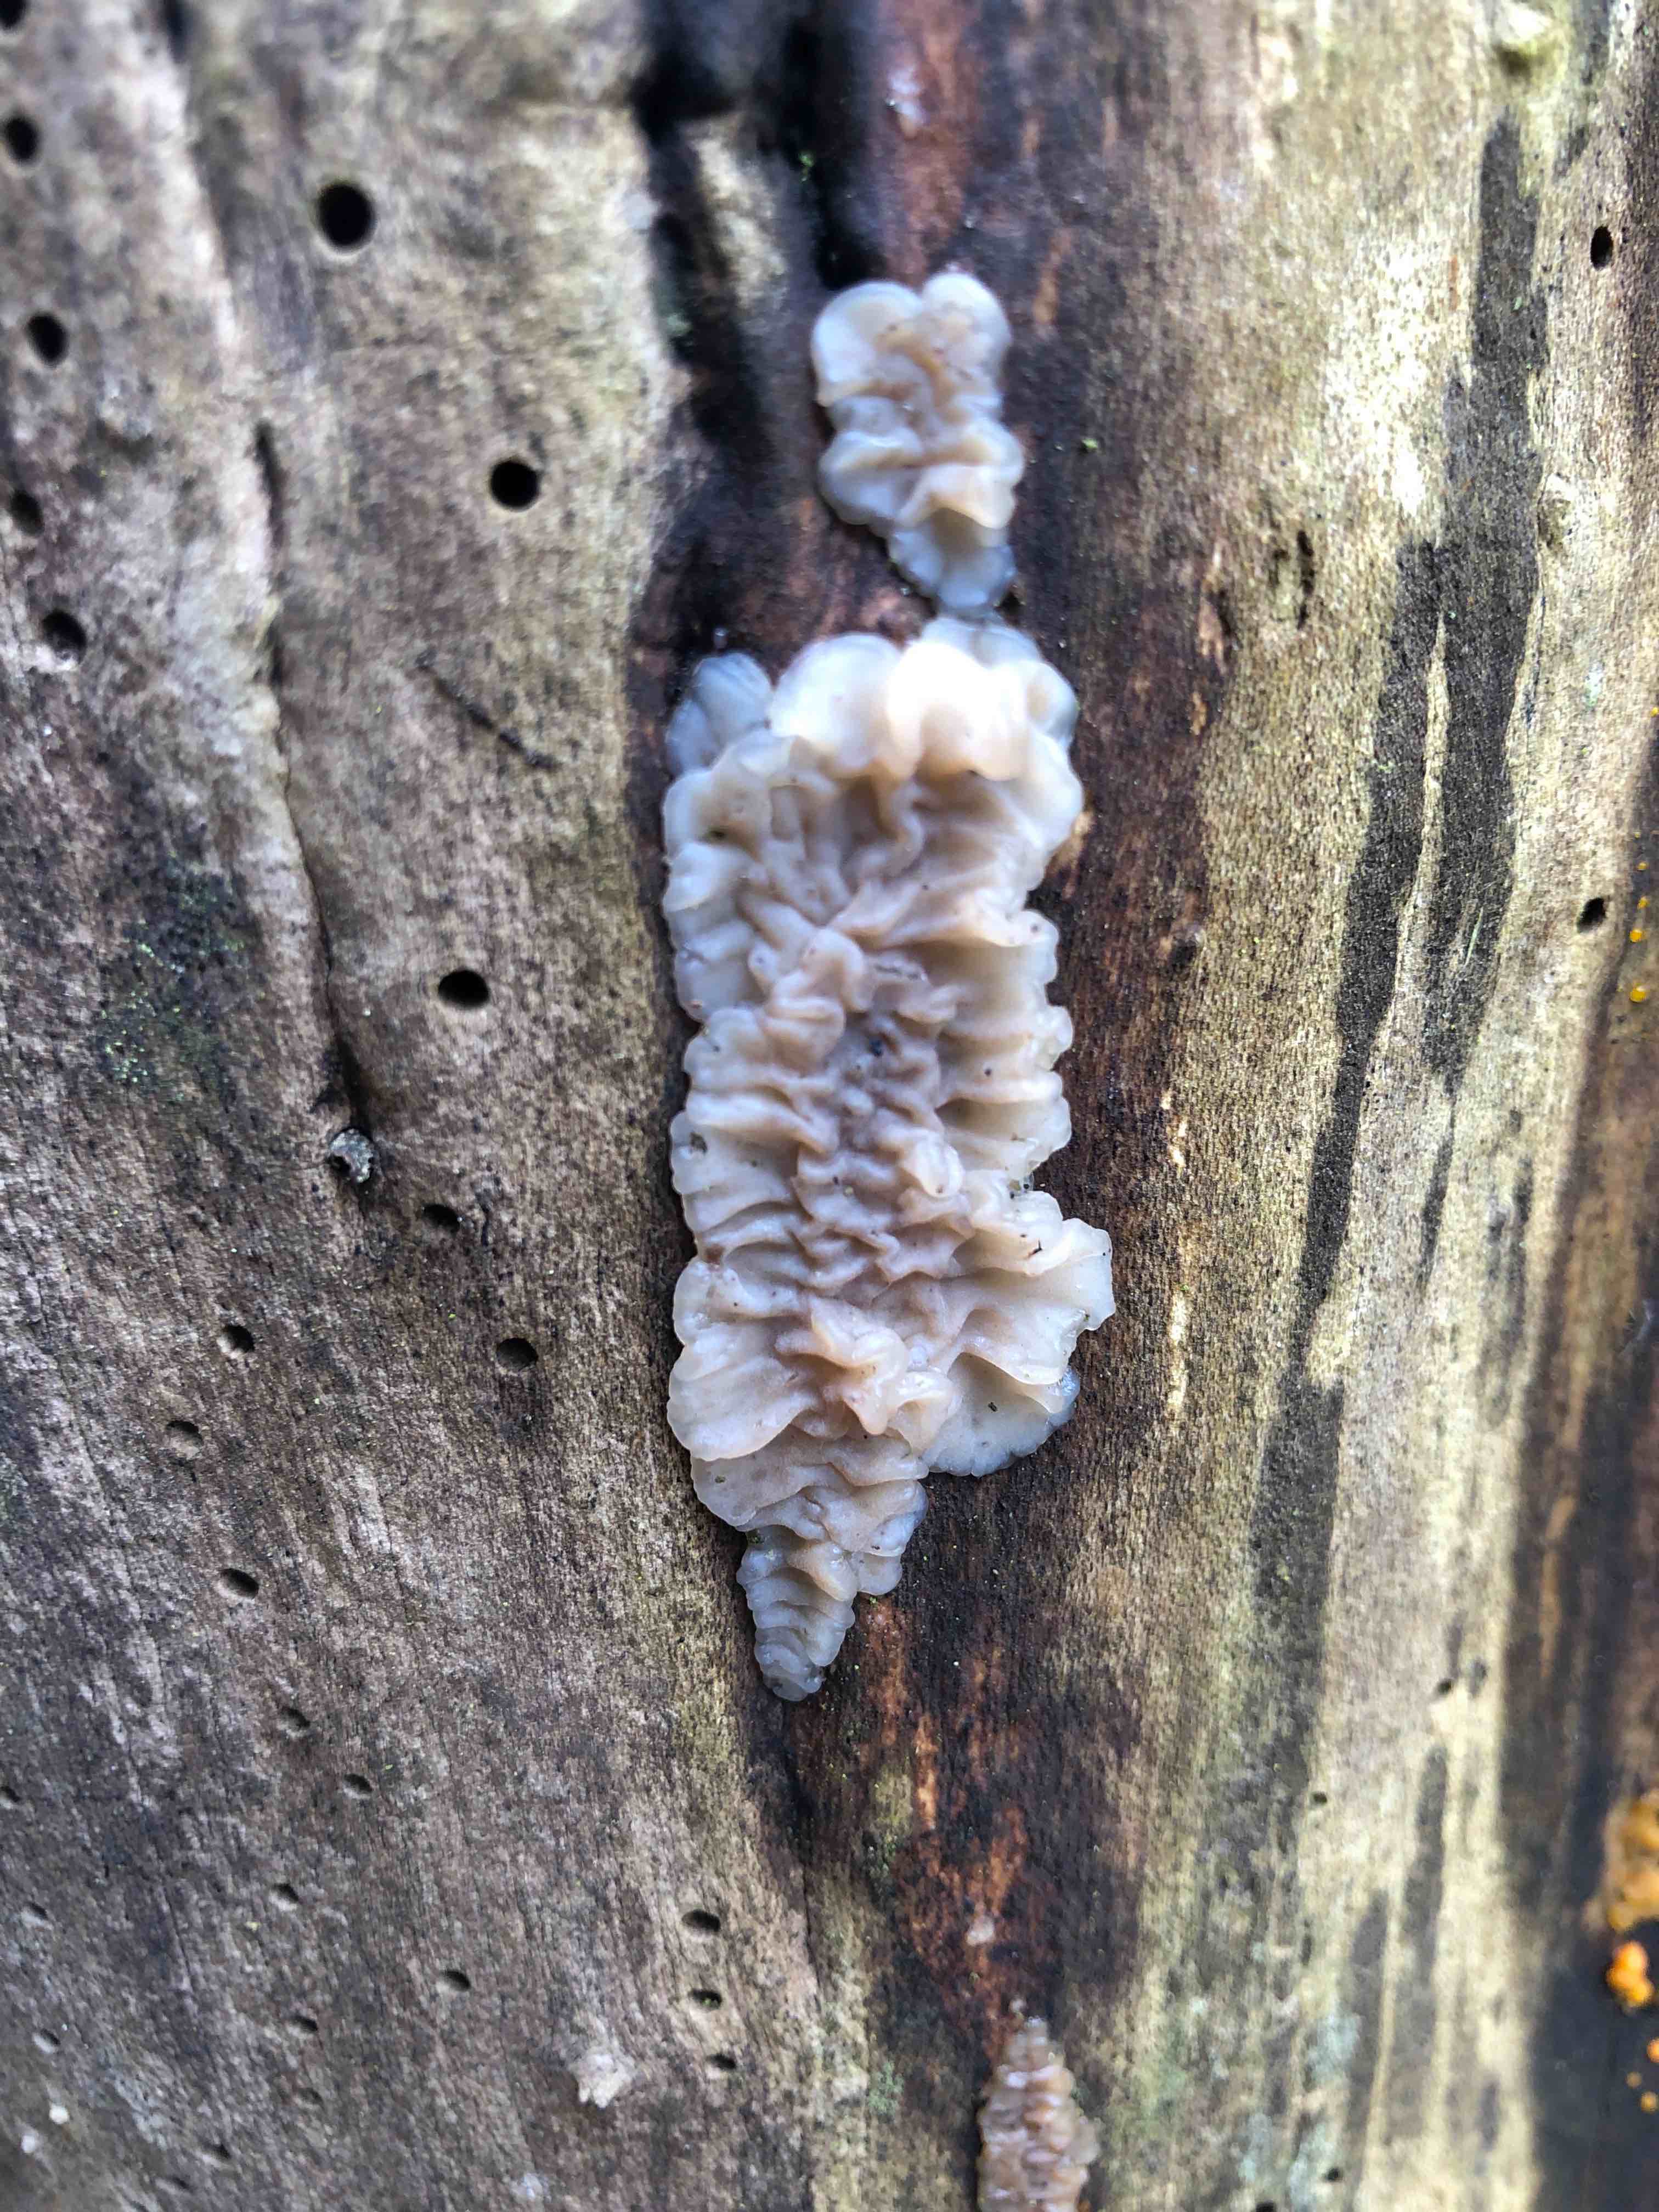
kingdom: Fungi
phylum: Basidiomycota
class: Agaricomycetes
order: Auriculariales
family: Auriculariaceae
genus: Exidia
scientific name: Exidia thuretiana
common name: hvidlig bævretop
